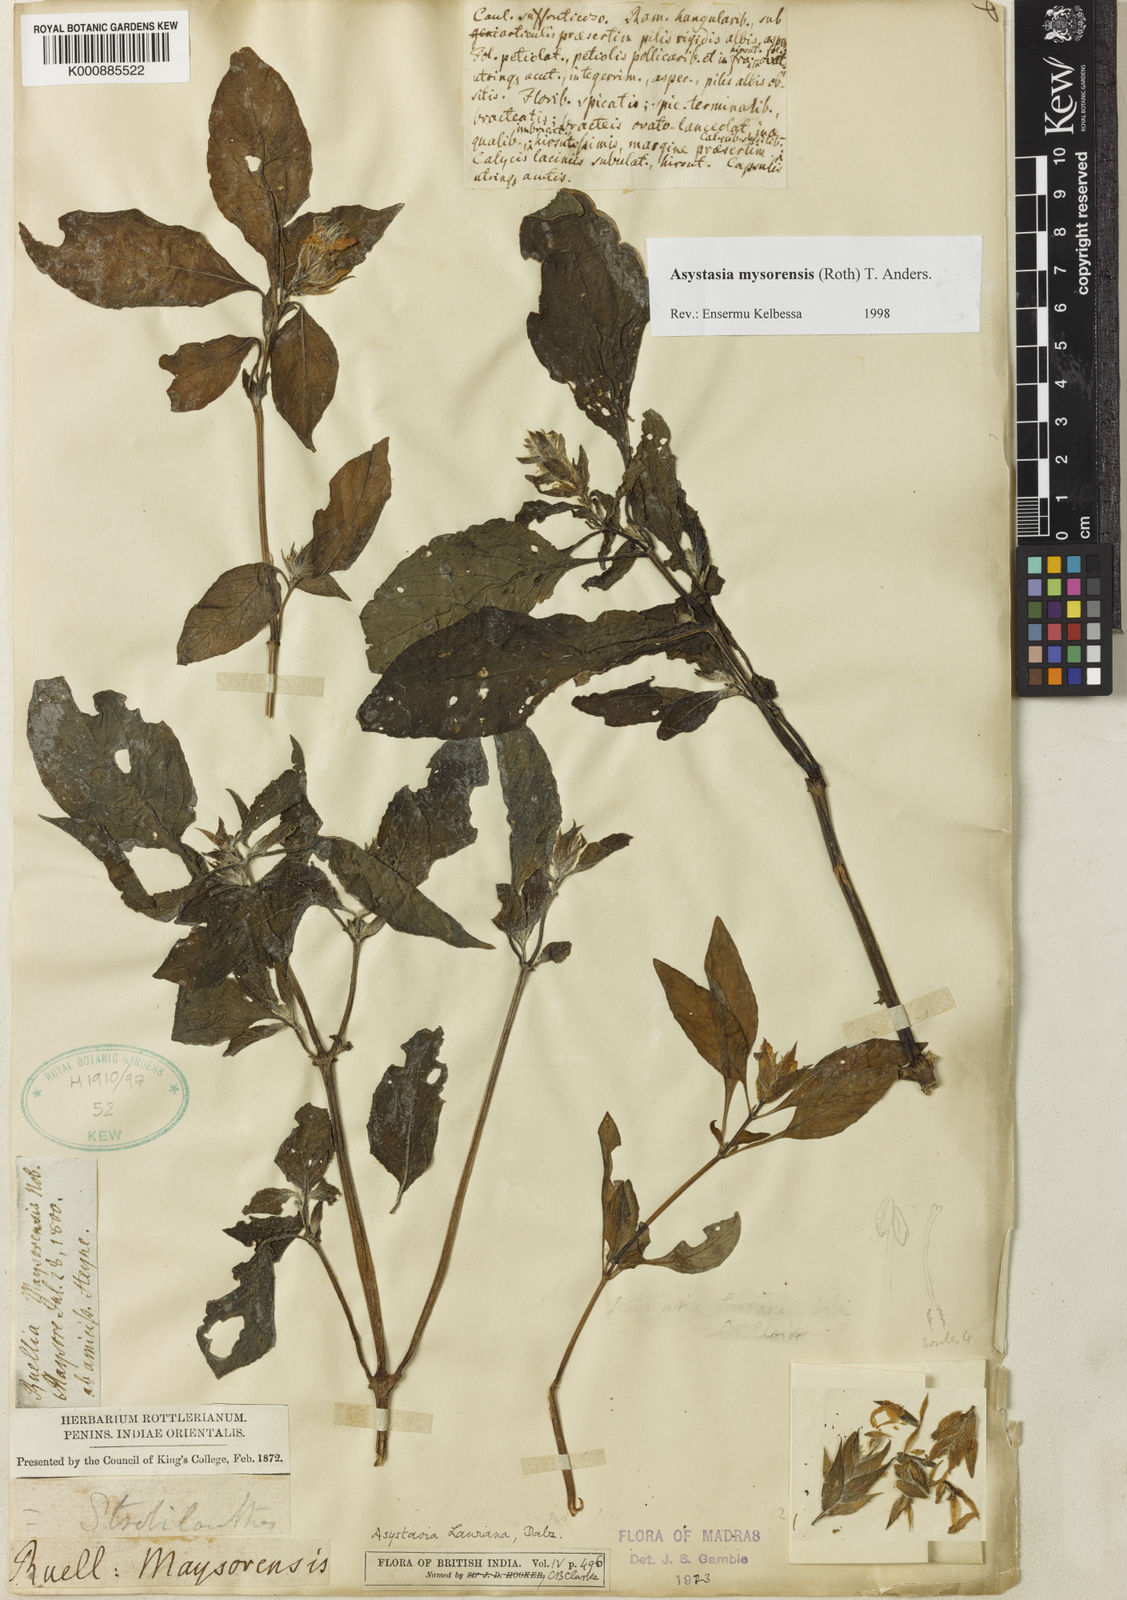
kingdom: Plantae
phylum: Tracheophyta
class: Magnoliopsida
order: Lamiales
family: Acanthaceae
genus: Asystasia
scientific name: Asystasia
